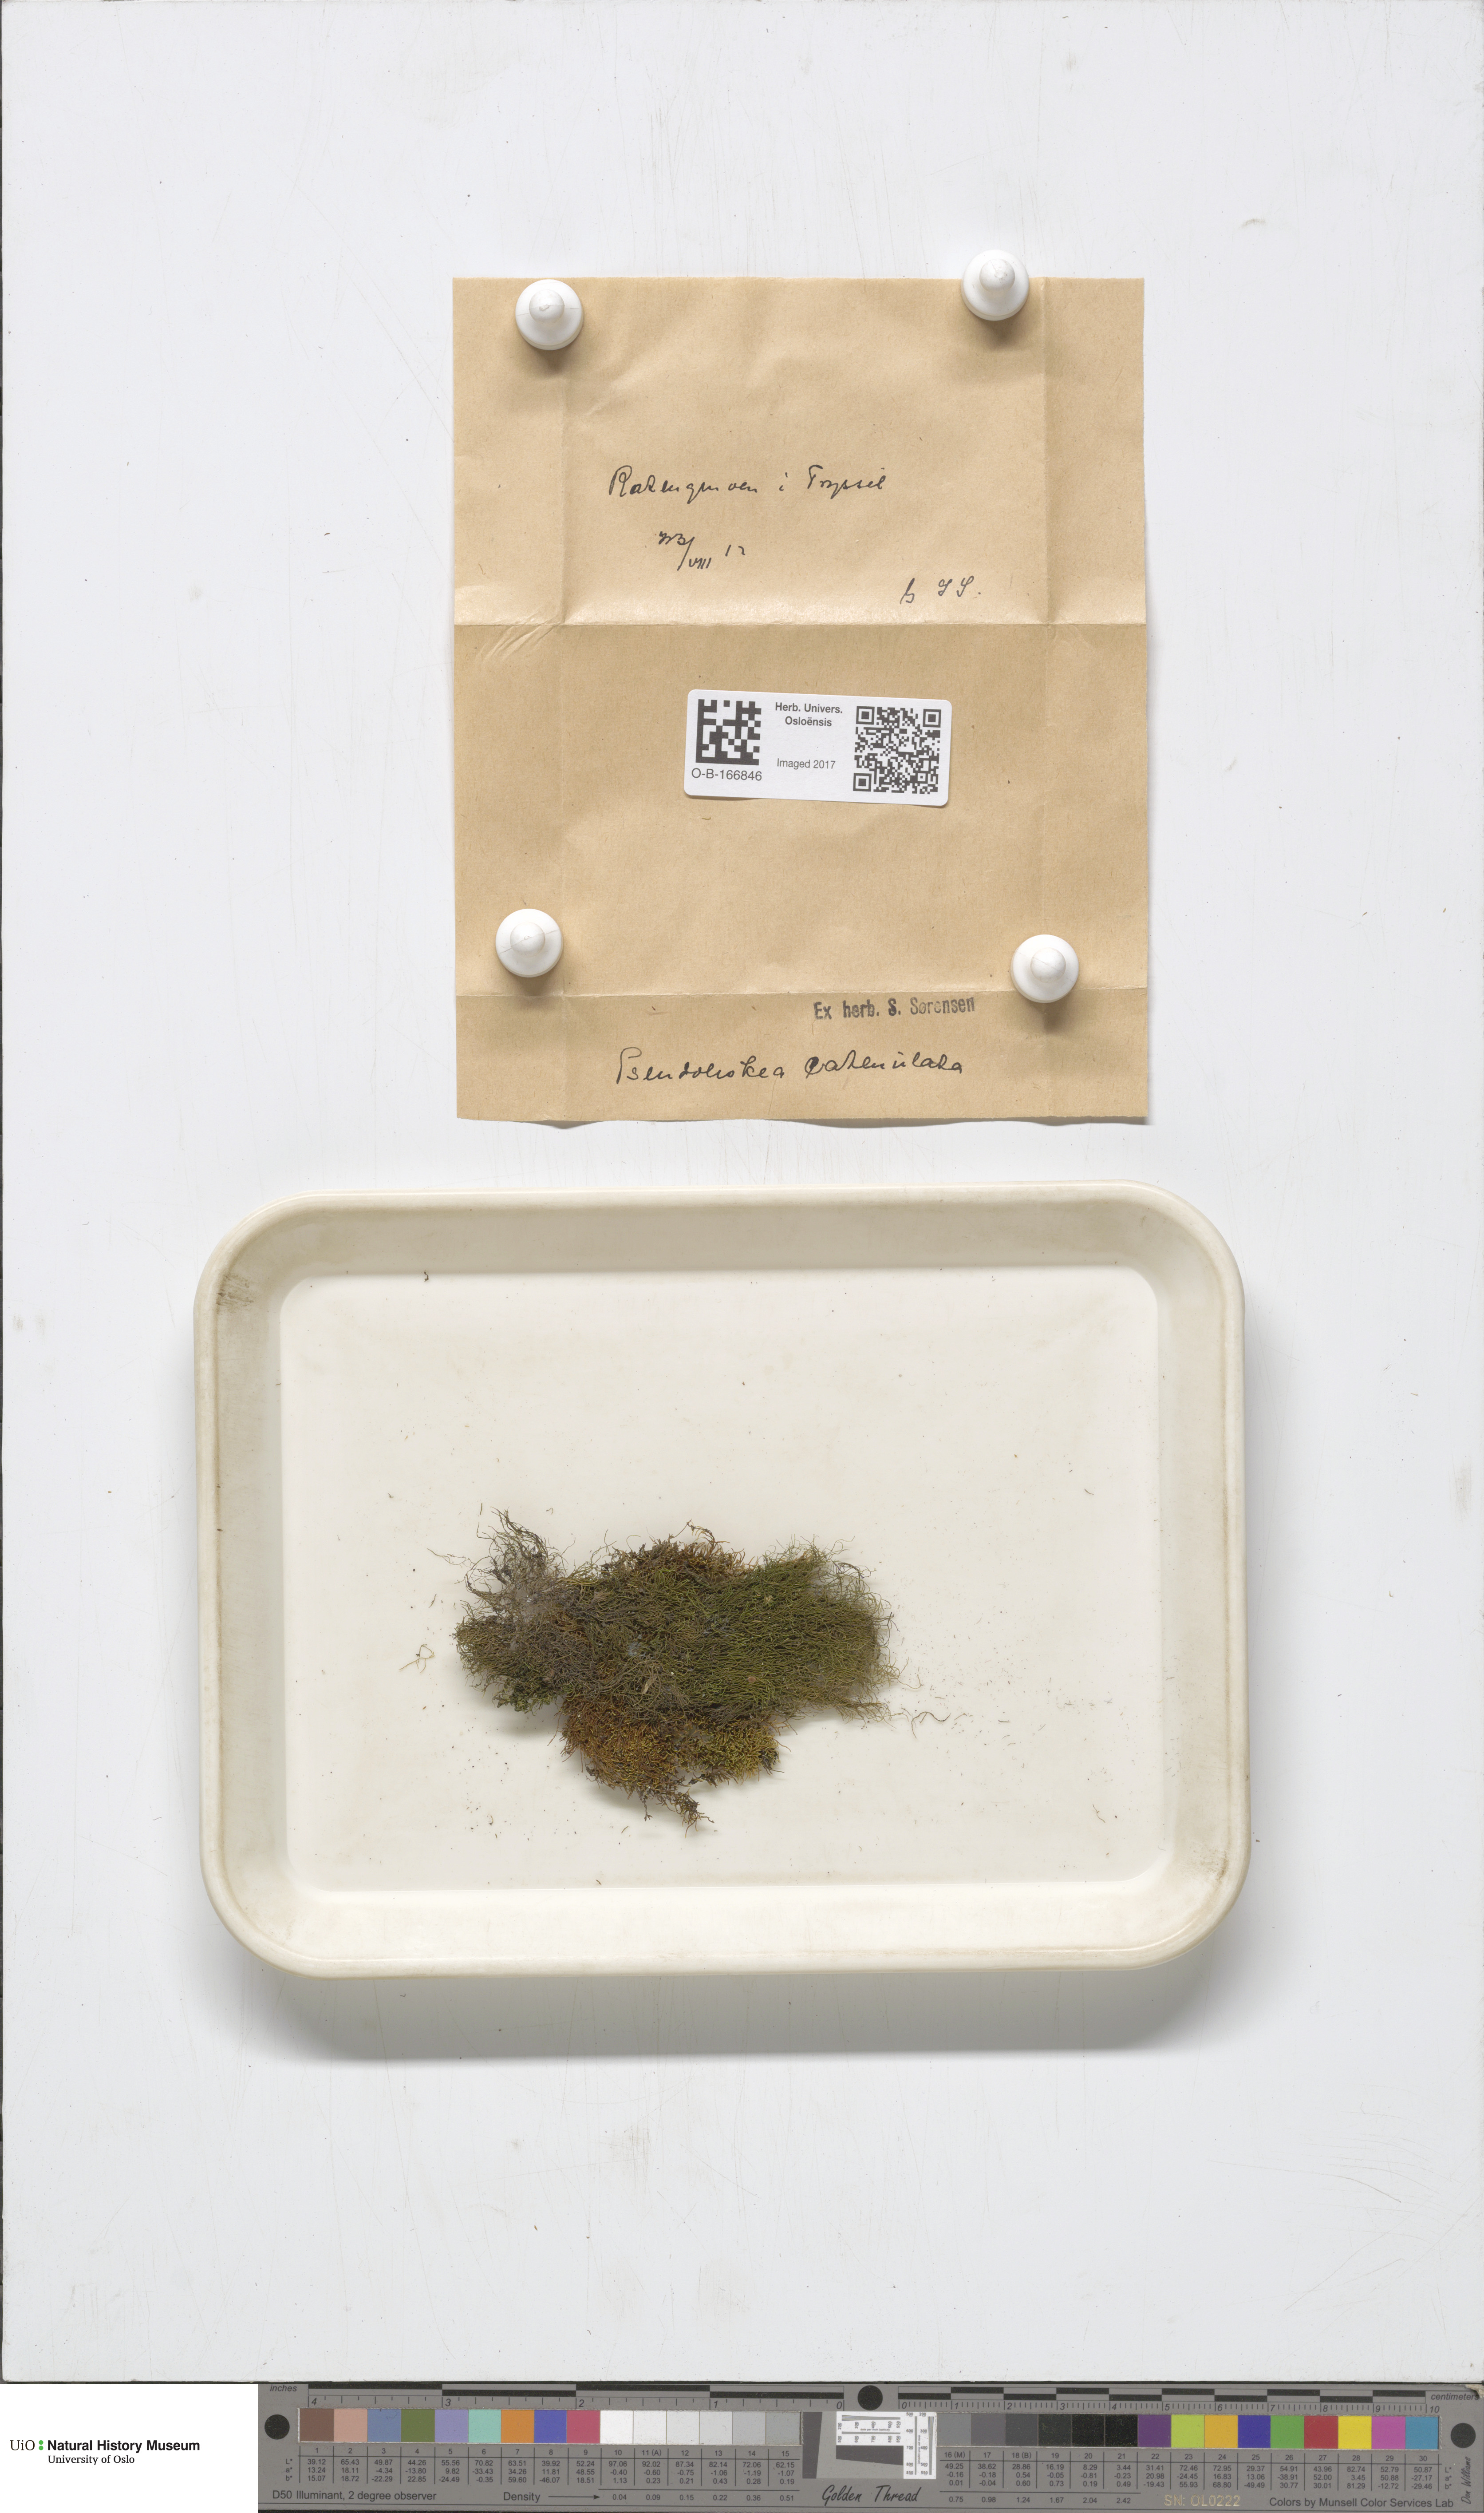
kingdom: Plantae
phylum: Bryophyta
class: Bryopsida
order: Hypnales
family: Pseudoleskeellaceae
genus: Pseudoleskeella
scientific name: Pseudoleskeella catenulata
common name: Chained leskea
